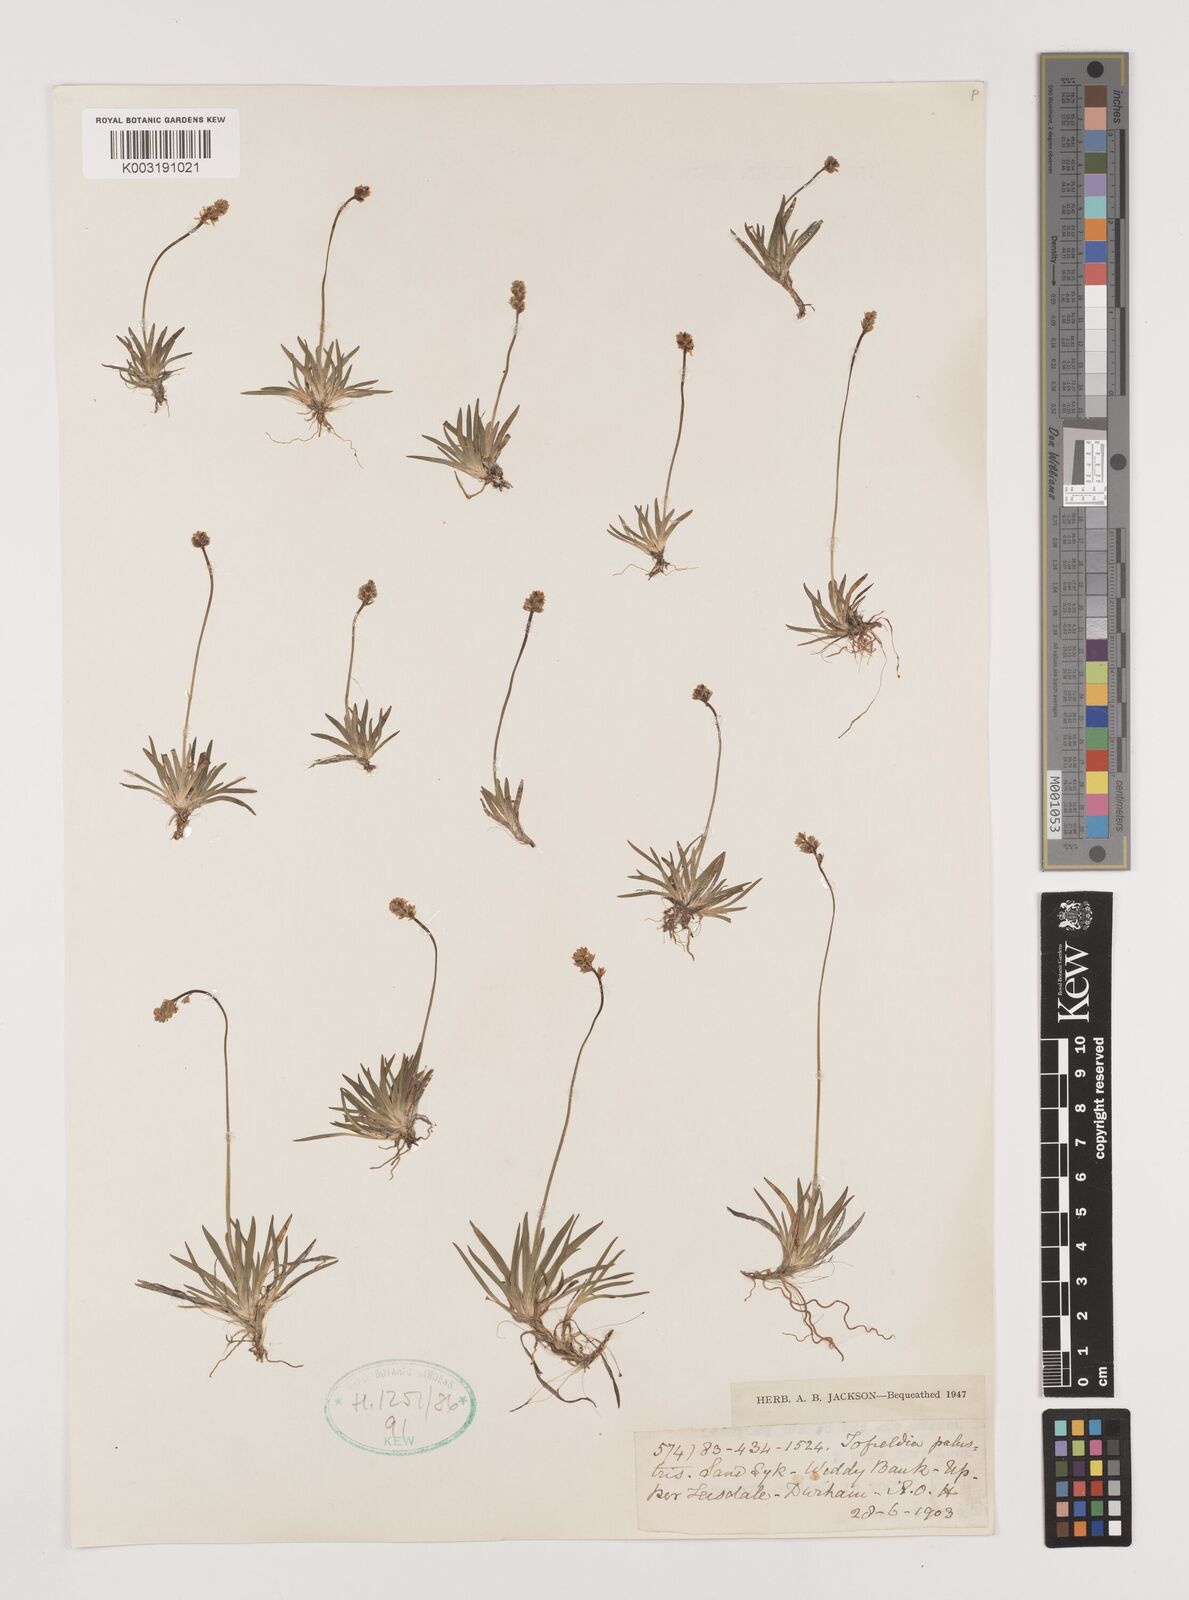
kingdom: Plantae
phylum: Tracheophyta
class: Liliopsida
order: Alismatales
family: Tofieldiaceae
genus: Tofieldia
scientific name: Tofieldia pusilla
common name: Scottish false asphodel
